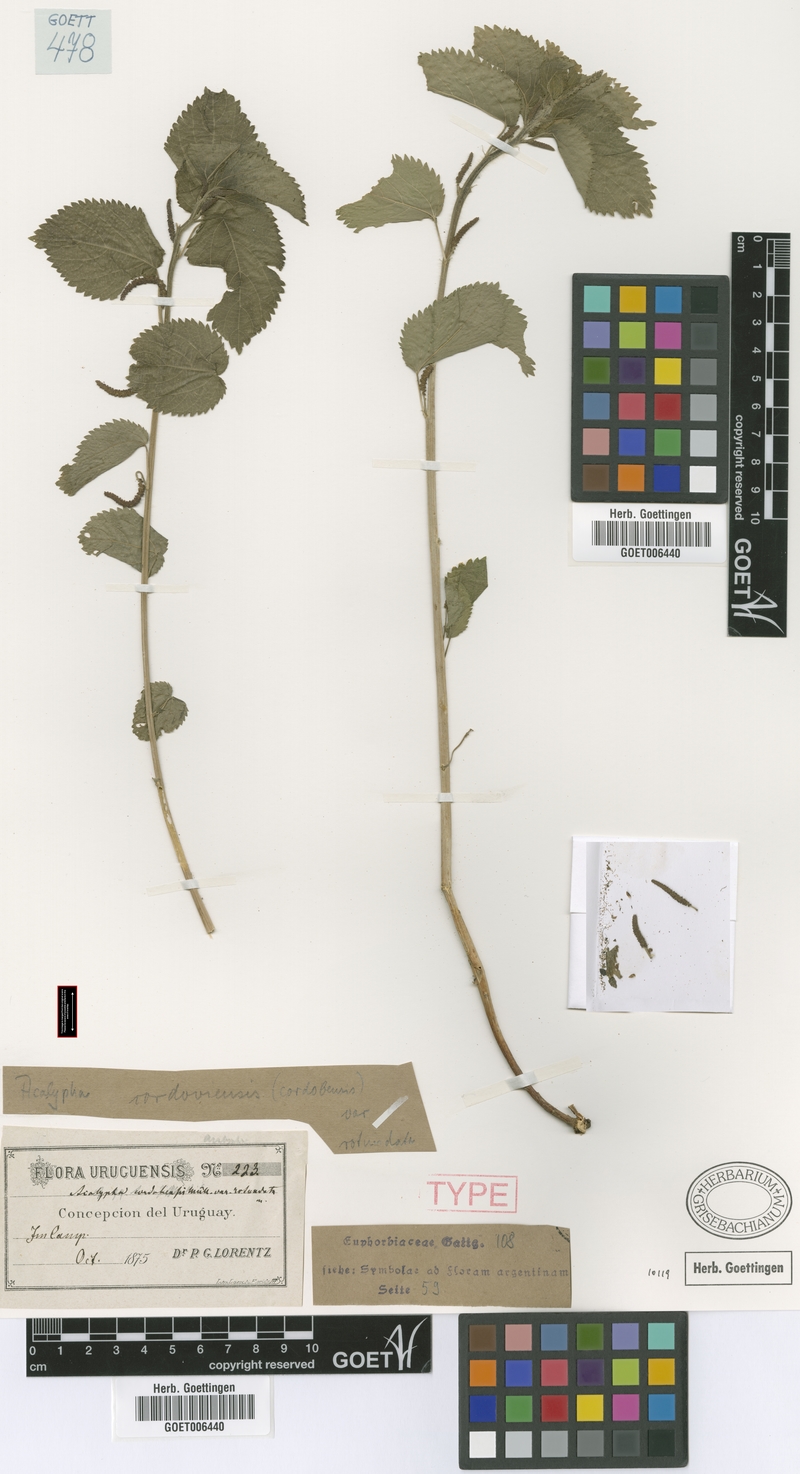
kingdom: Plantae
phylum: Tracheophyta
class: Magnoliopsida
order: Malpighiales
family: Euphorbiaceae
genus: Acalypha
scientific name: Acalypha communis
